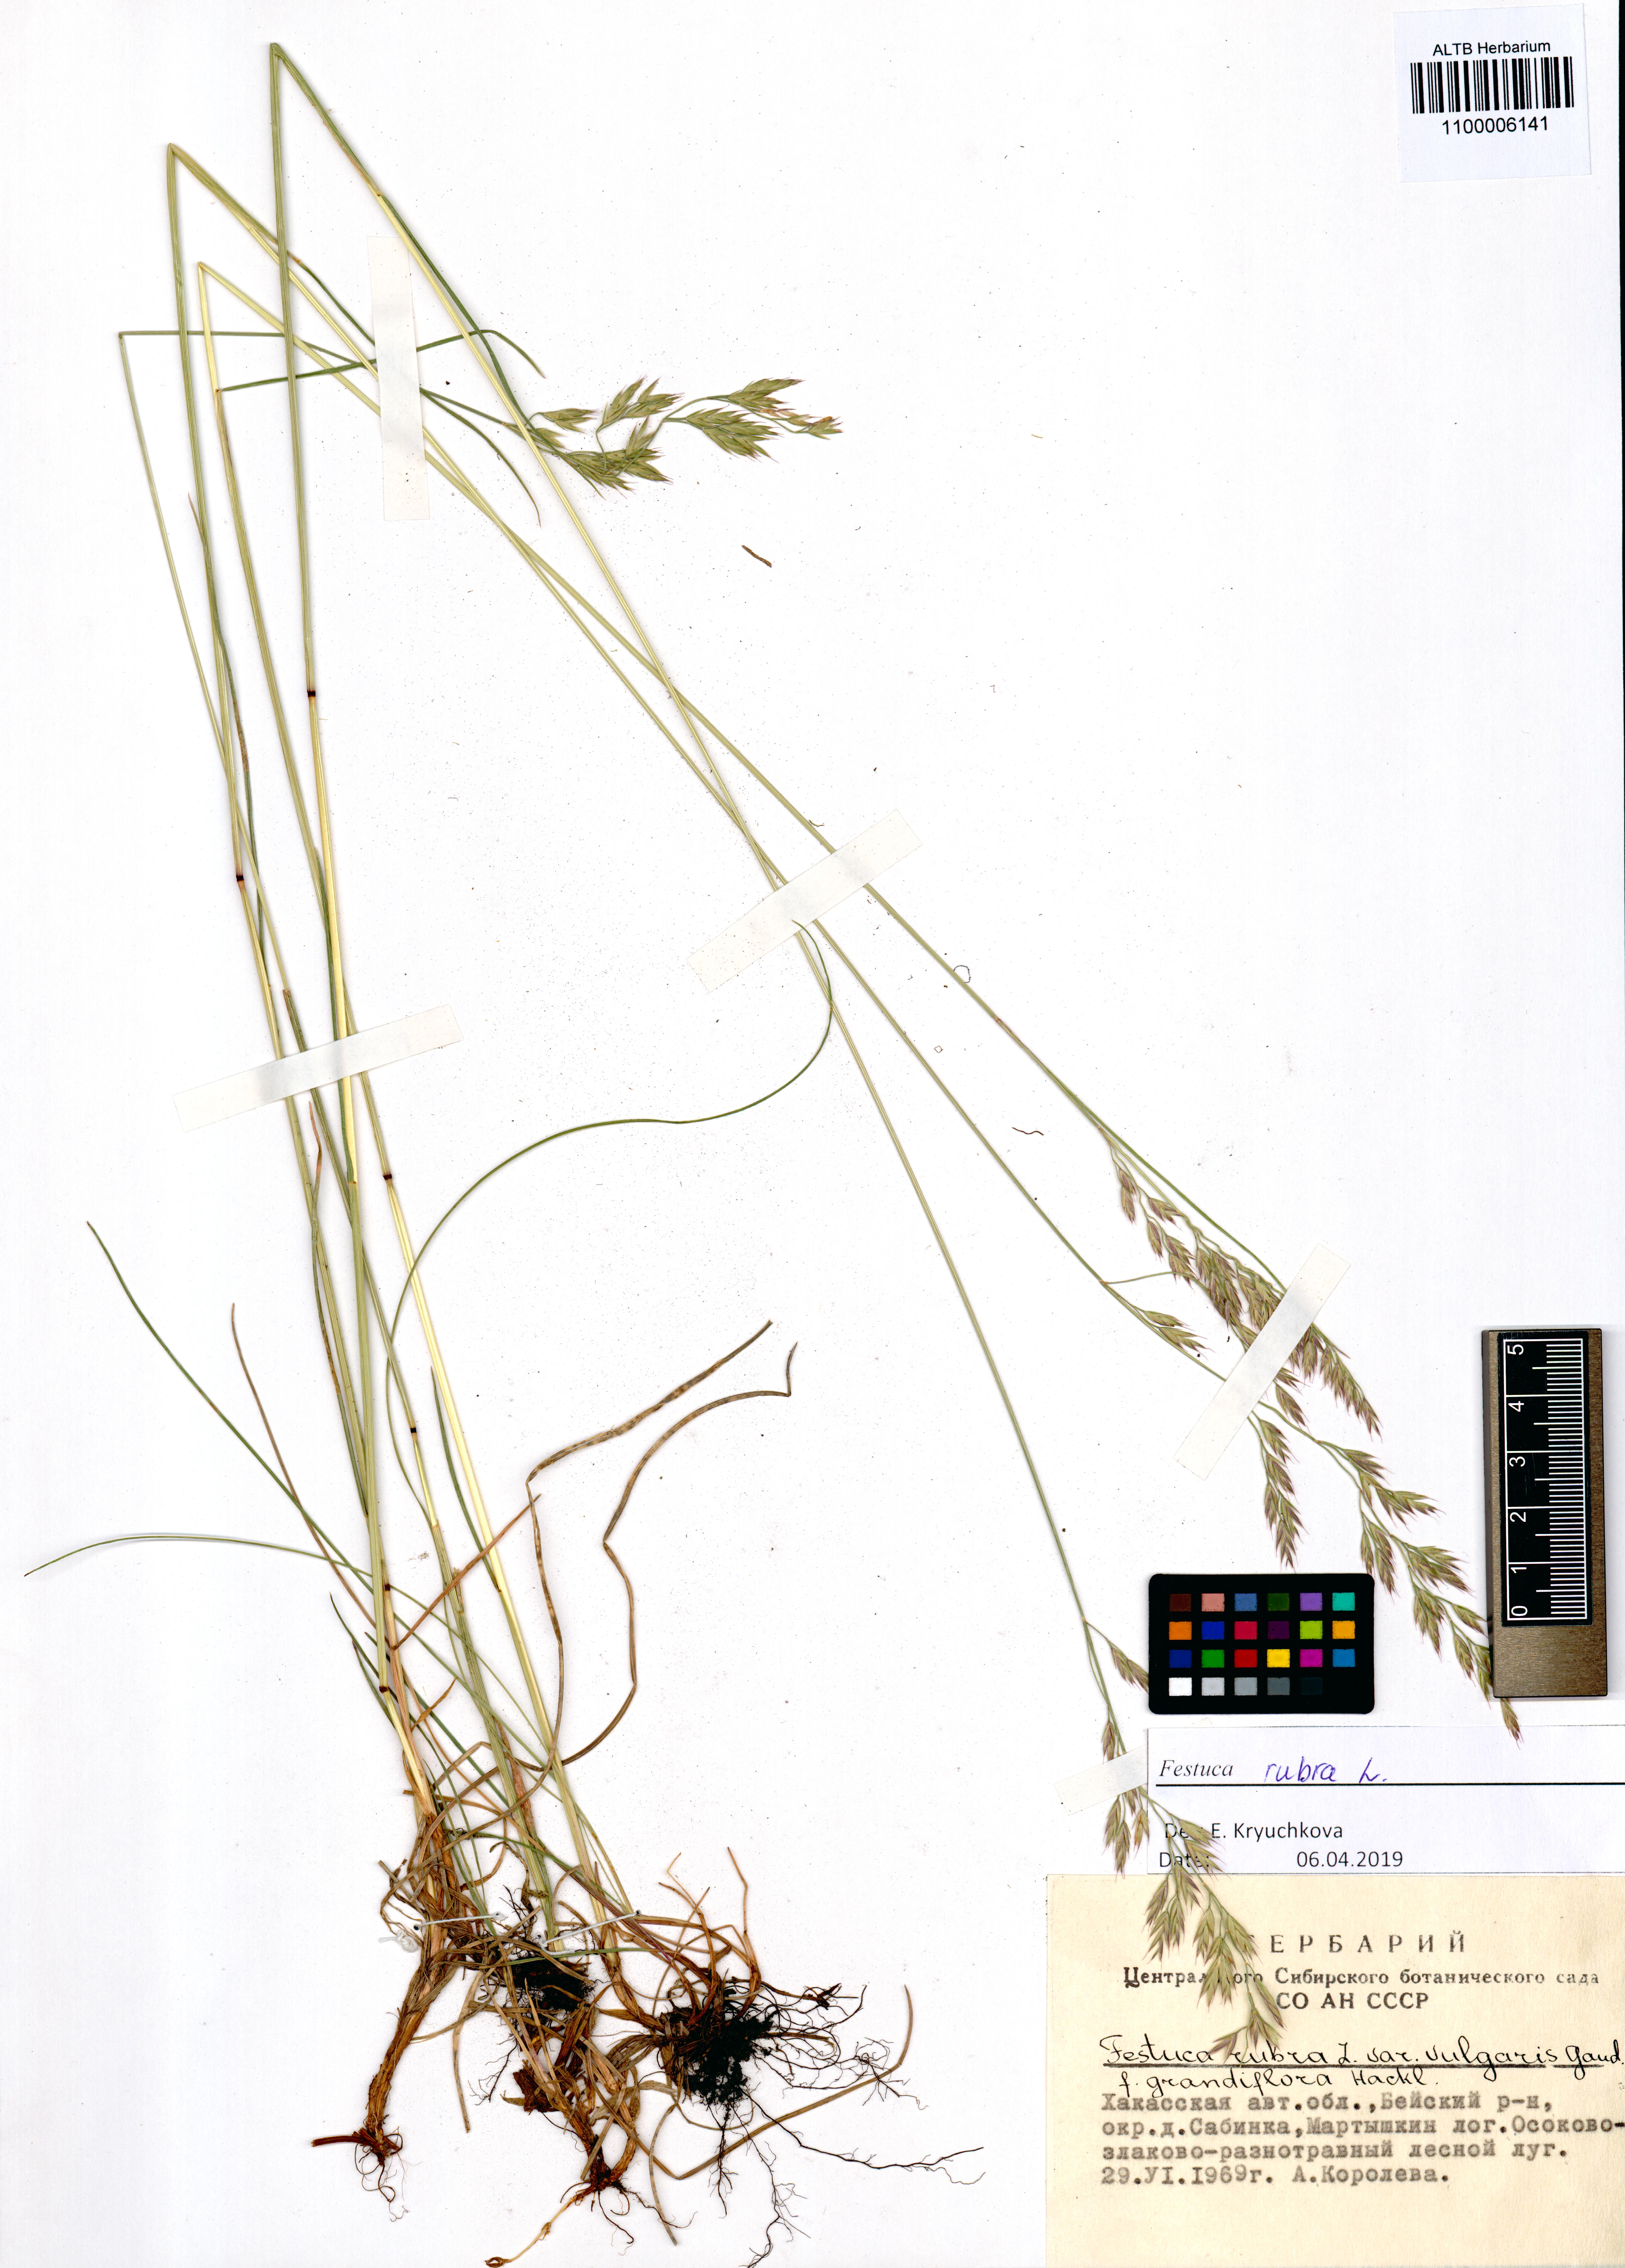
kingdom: Plantae
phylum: Tracheophyta
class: Liliopsida
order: Poales
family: Poaceae
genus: Festuca
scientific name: Festuca rubra
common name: Red fescue
